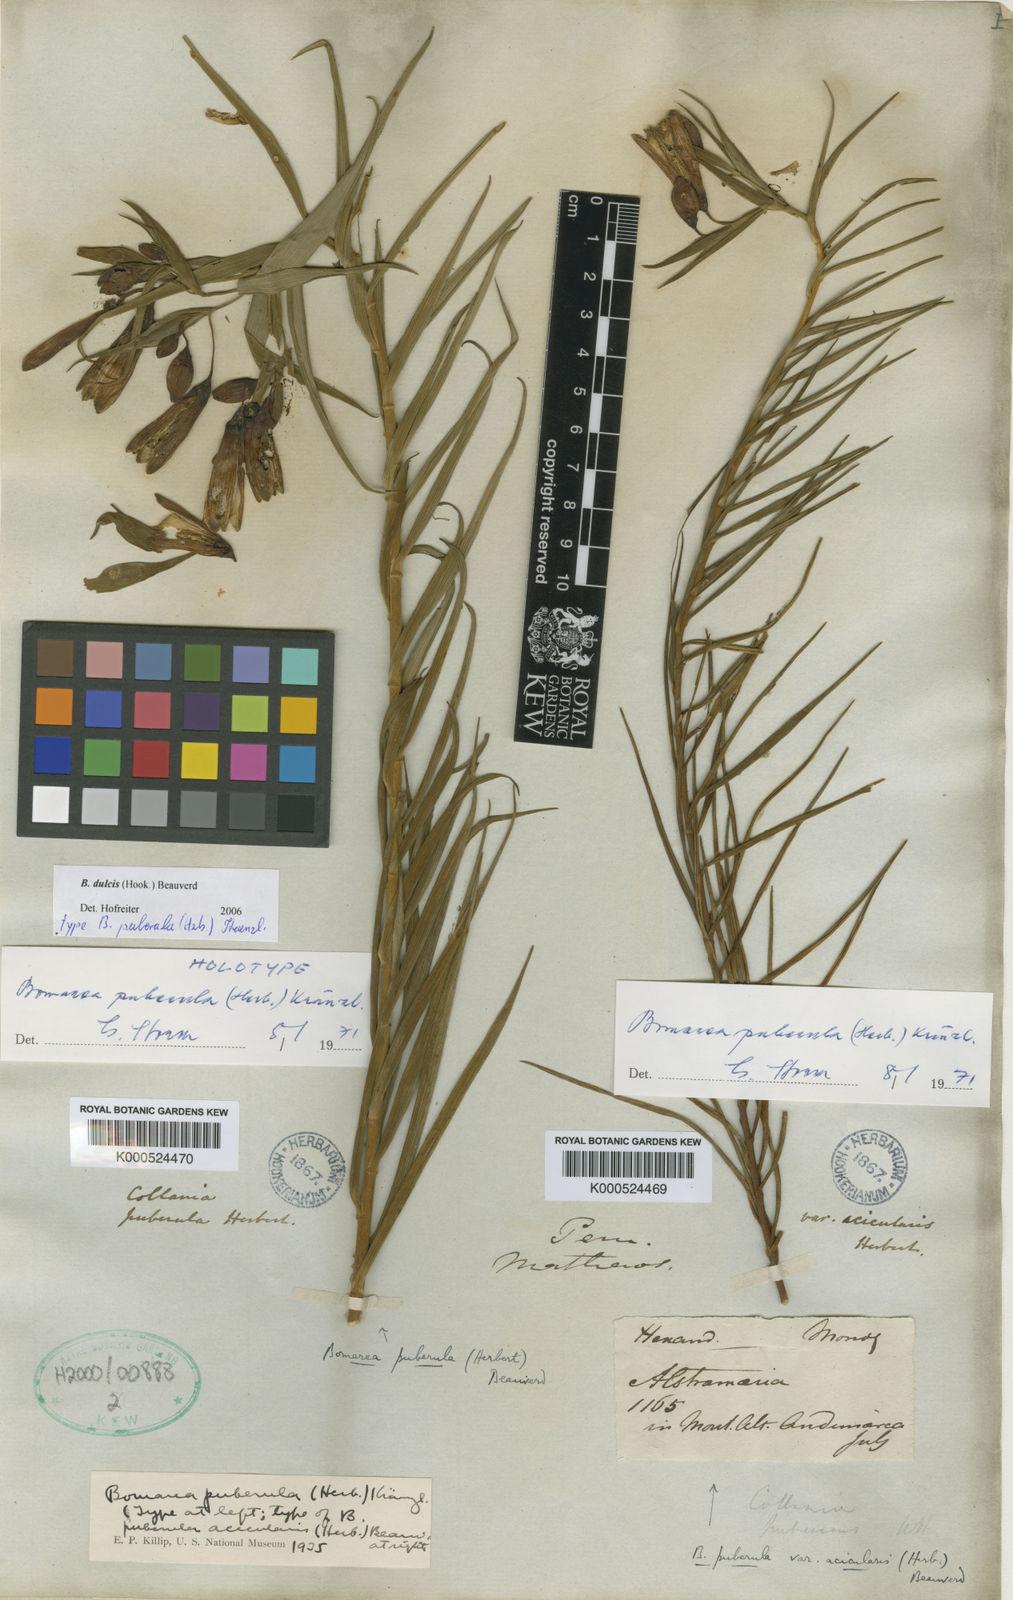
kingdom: Plantae
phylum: Tracheophyta
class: Liliopsida
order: Liliales
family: Alstroemeriaceae
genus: Bomarea
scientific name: Bomarea dulcis
